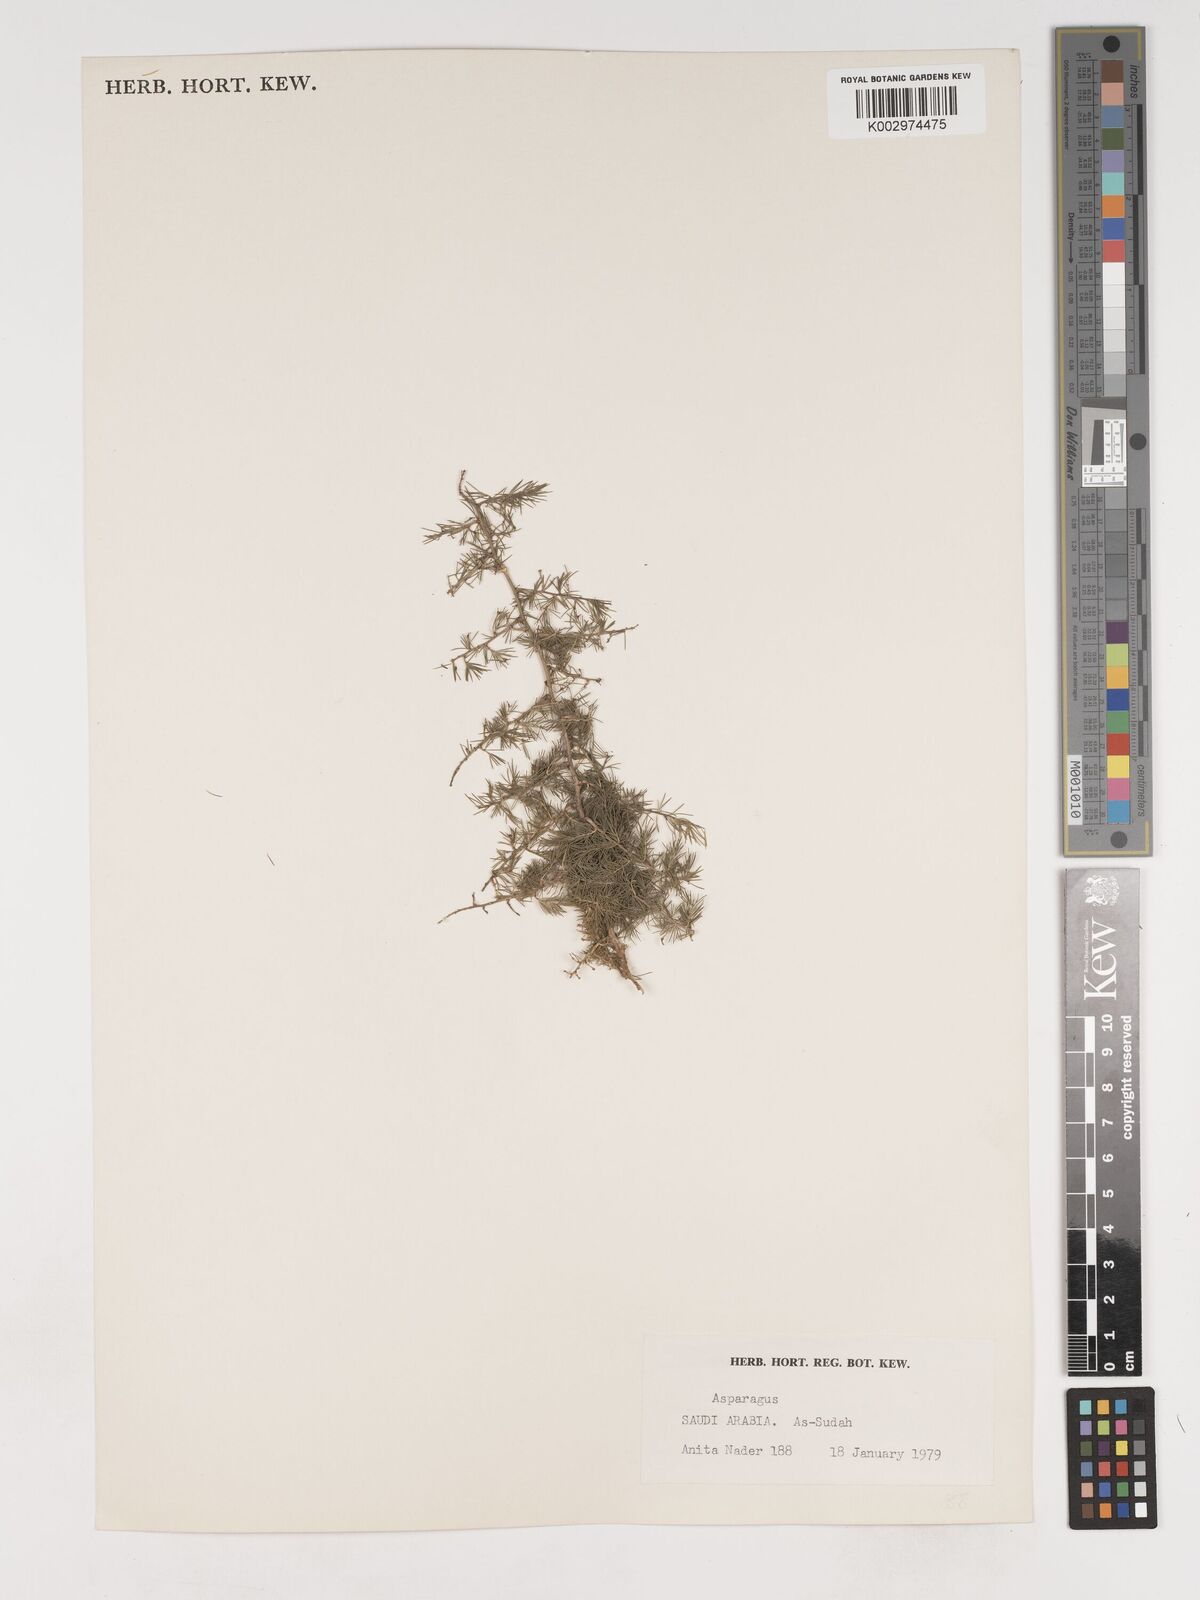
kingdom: Plantae
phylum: Tracheophyta
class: Liliopsida
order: Asparagales
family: Asparagaceae
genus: Asparagus
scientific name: Asparagus
